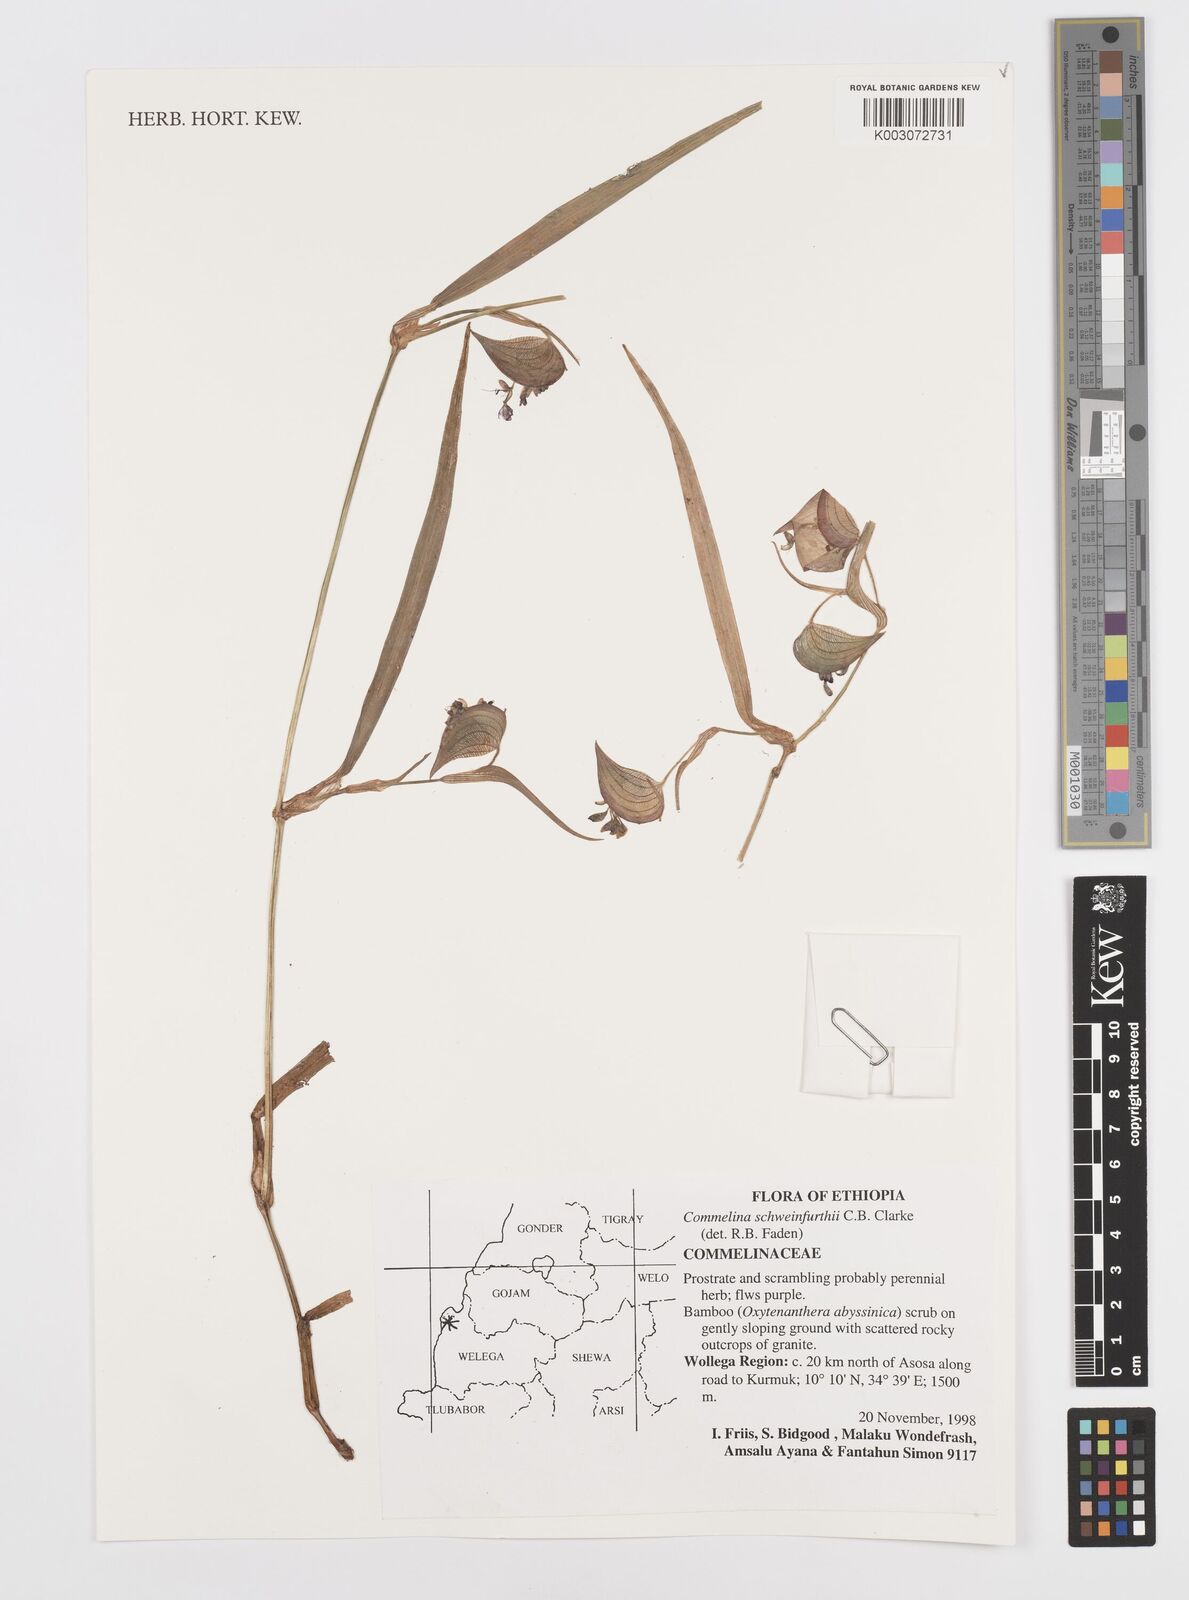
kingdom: Plantae
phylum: Tracheophyta
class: Liliopsida
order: Commelinales
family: Commelinaceae
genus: Commelina
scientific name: Commelina schweinfurthii
